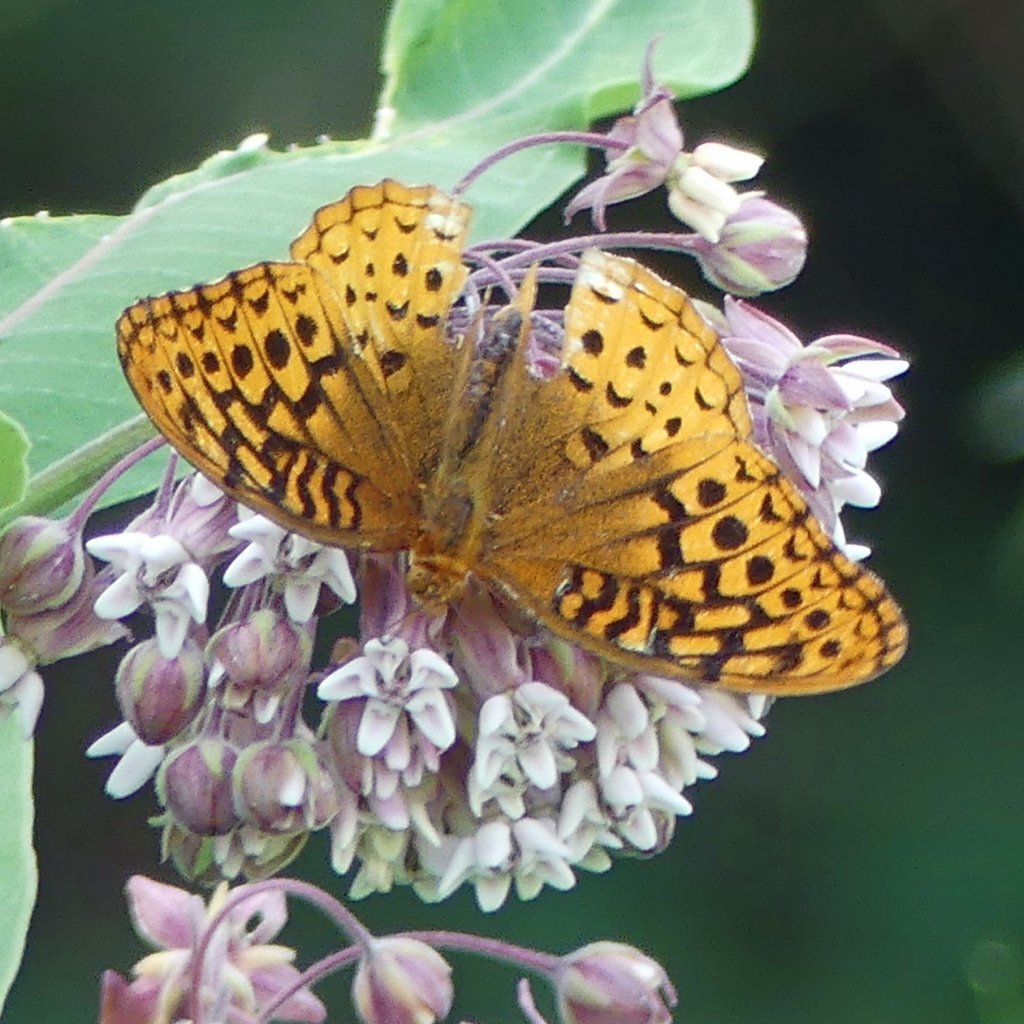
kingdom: Animalia
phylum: Arthropoda
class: Insecta
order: Lepidoptera
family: Nymphalidae
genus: Speyeria
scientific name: Speyeria cybele
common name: Great Spangled Fritillary
